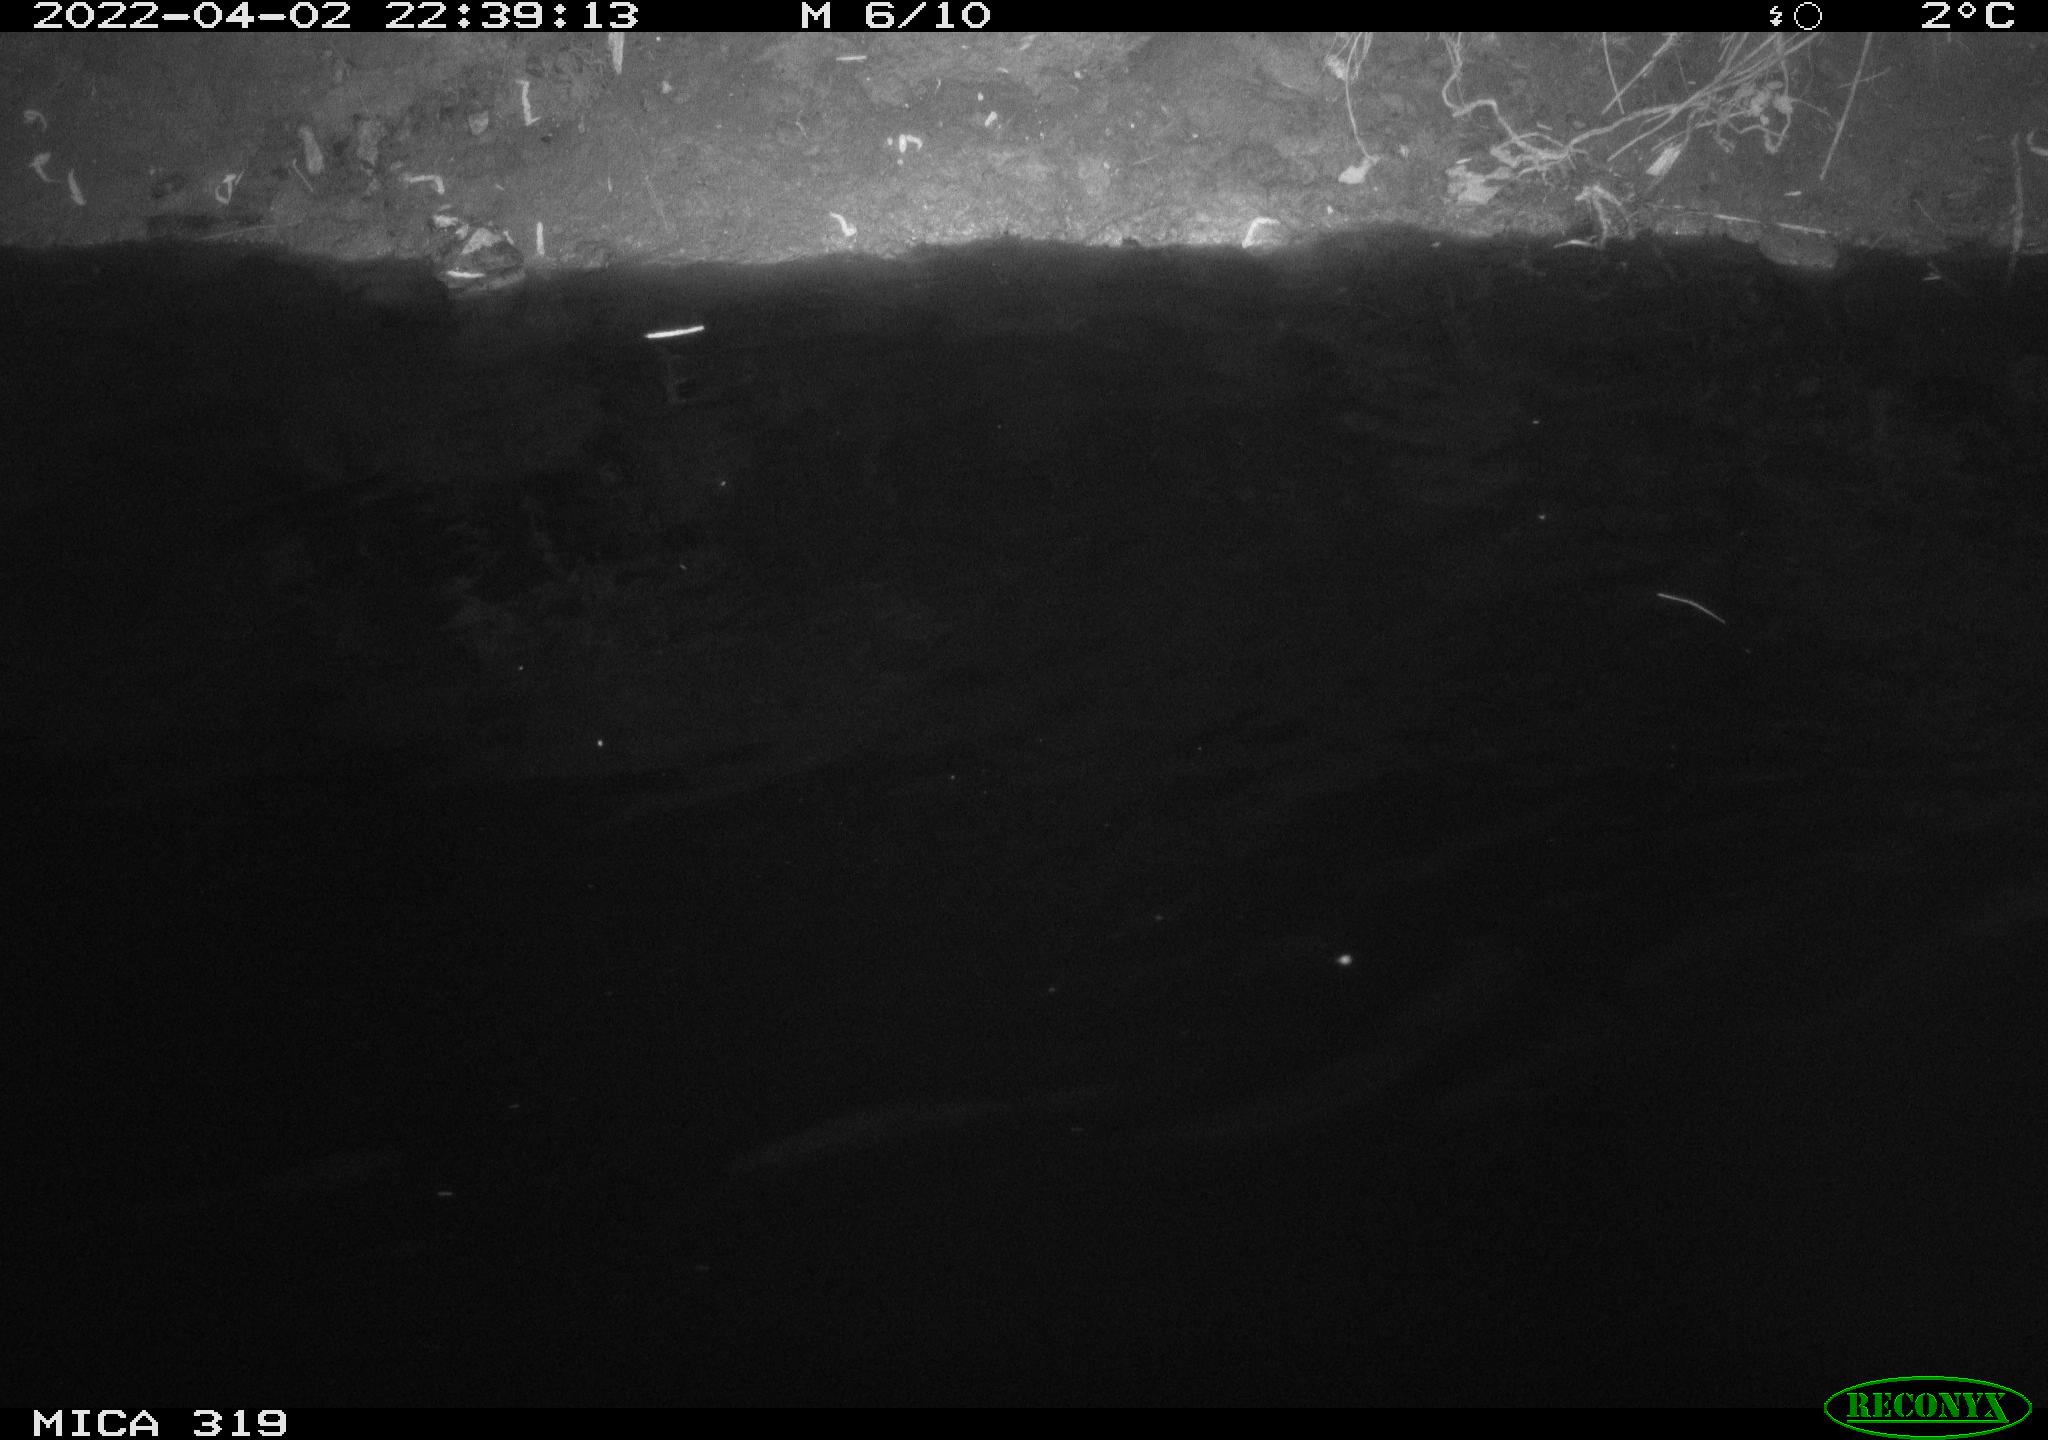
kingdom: Animalia
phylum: Chordata
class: Aves
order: Anseriformes
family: Anatidae
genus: Anas
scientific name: Anas platyrhynchos
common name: Mallard
